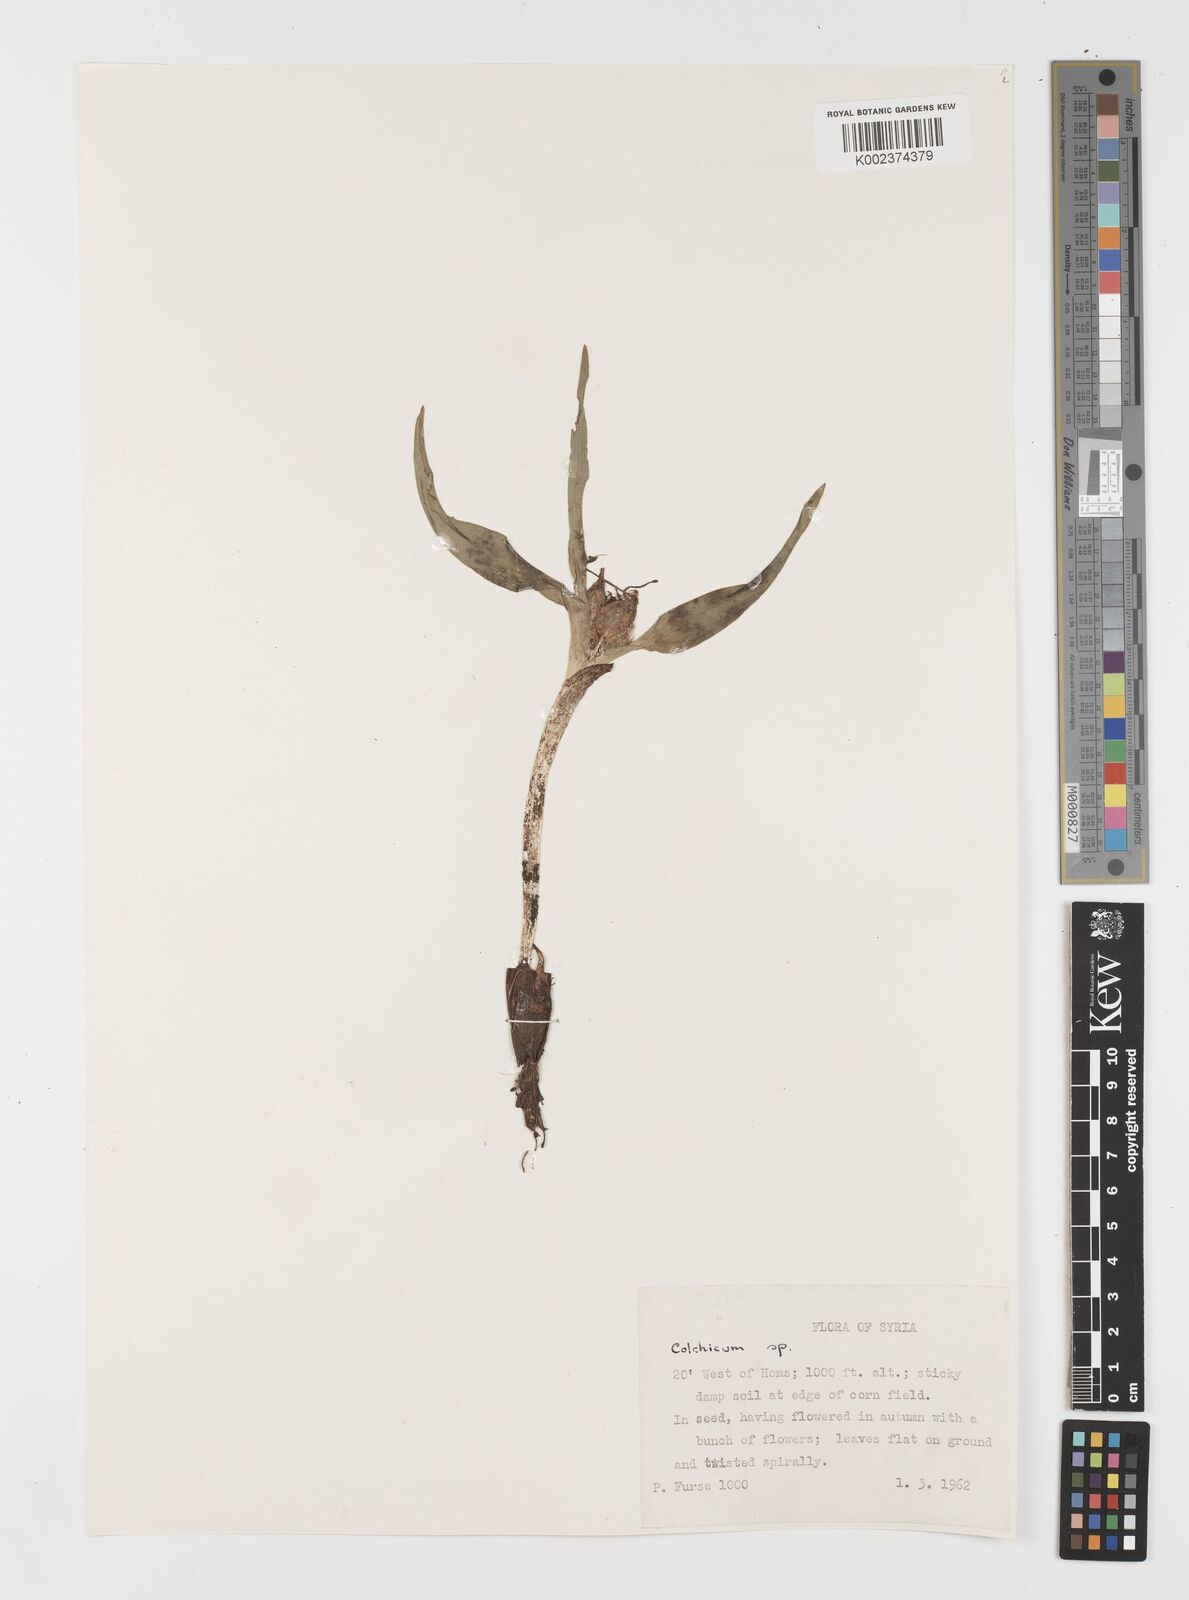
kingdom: Plantae
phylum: Tracheophyta
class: Liliopsida
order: Liliales
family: Colchicaceae
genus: Colchicum
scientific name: Colchicum
